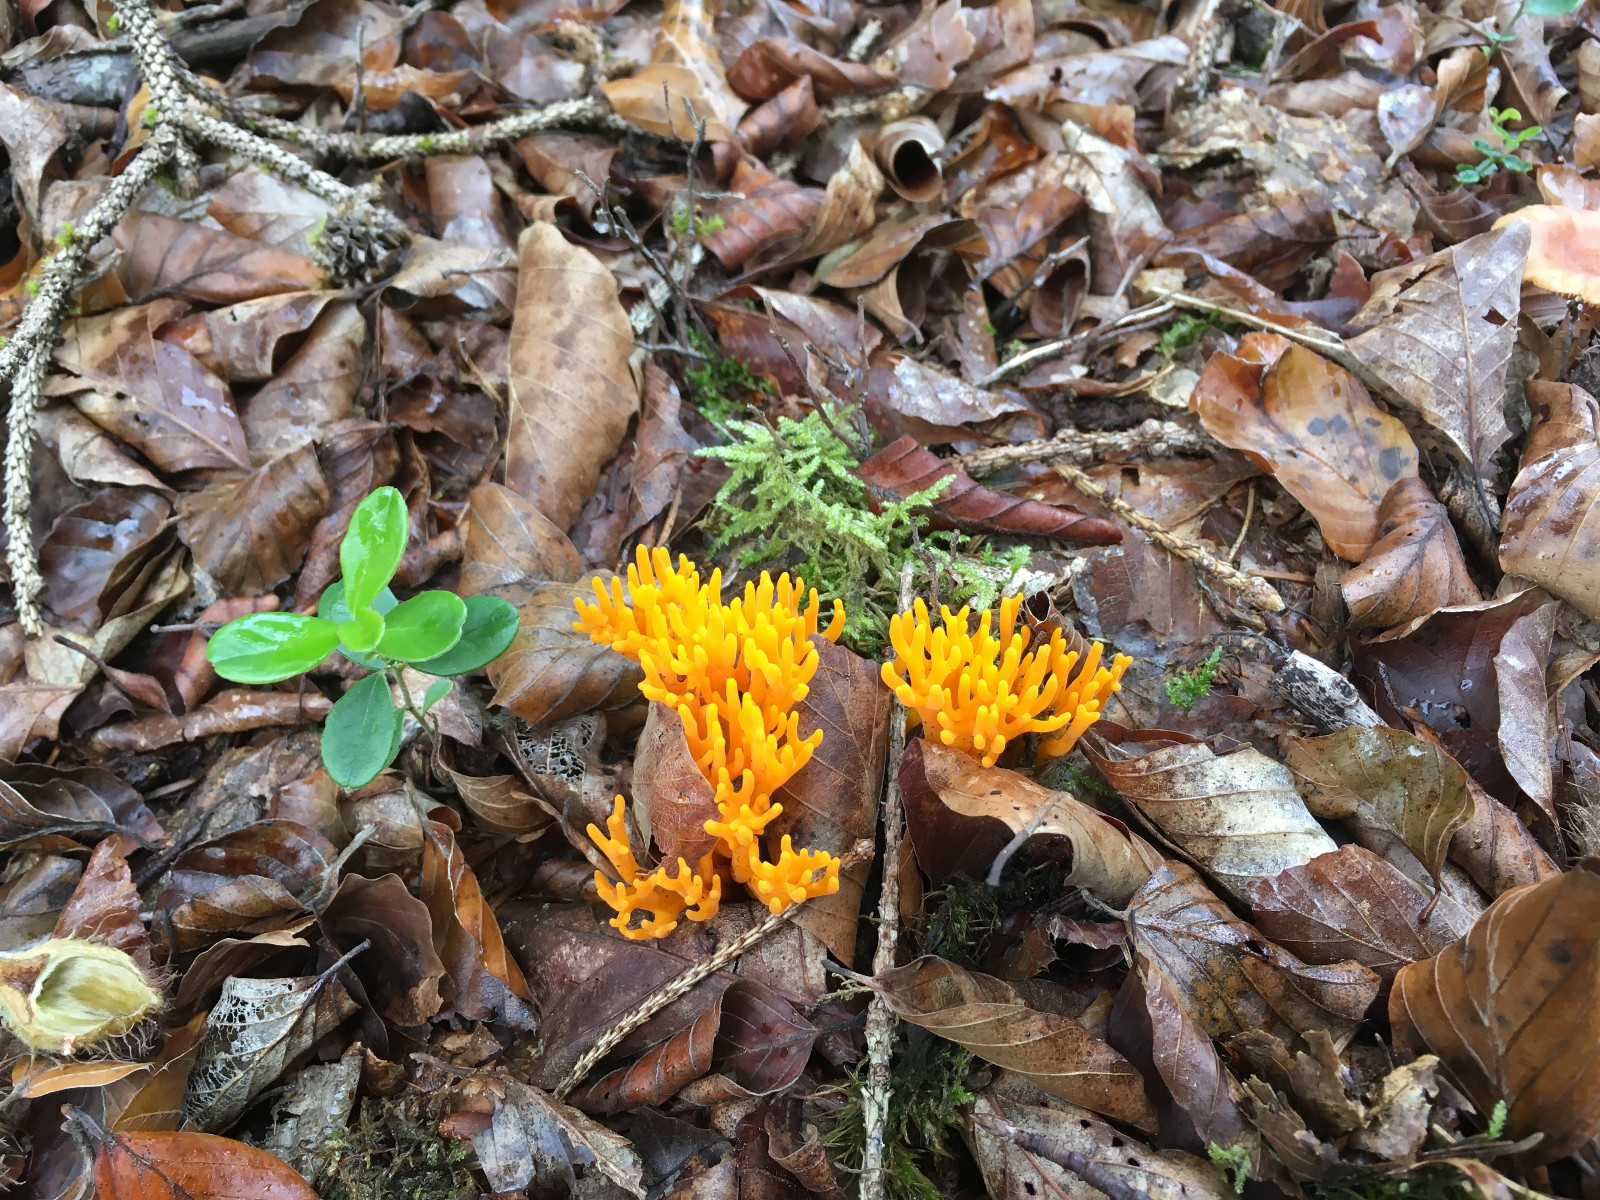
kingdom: Fungi
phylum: Basidiomycota
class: Dacrymycetes
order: Dacrymycetales
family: Dacrymycetaceae
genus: Calocera
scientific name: Calocera viscosa
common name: almindelig guldgaffel
